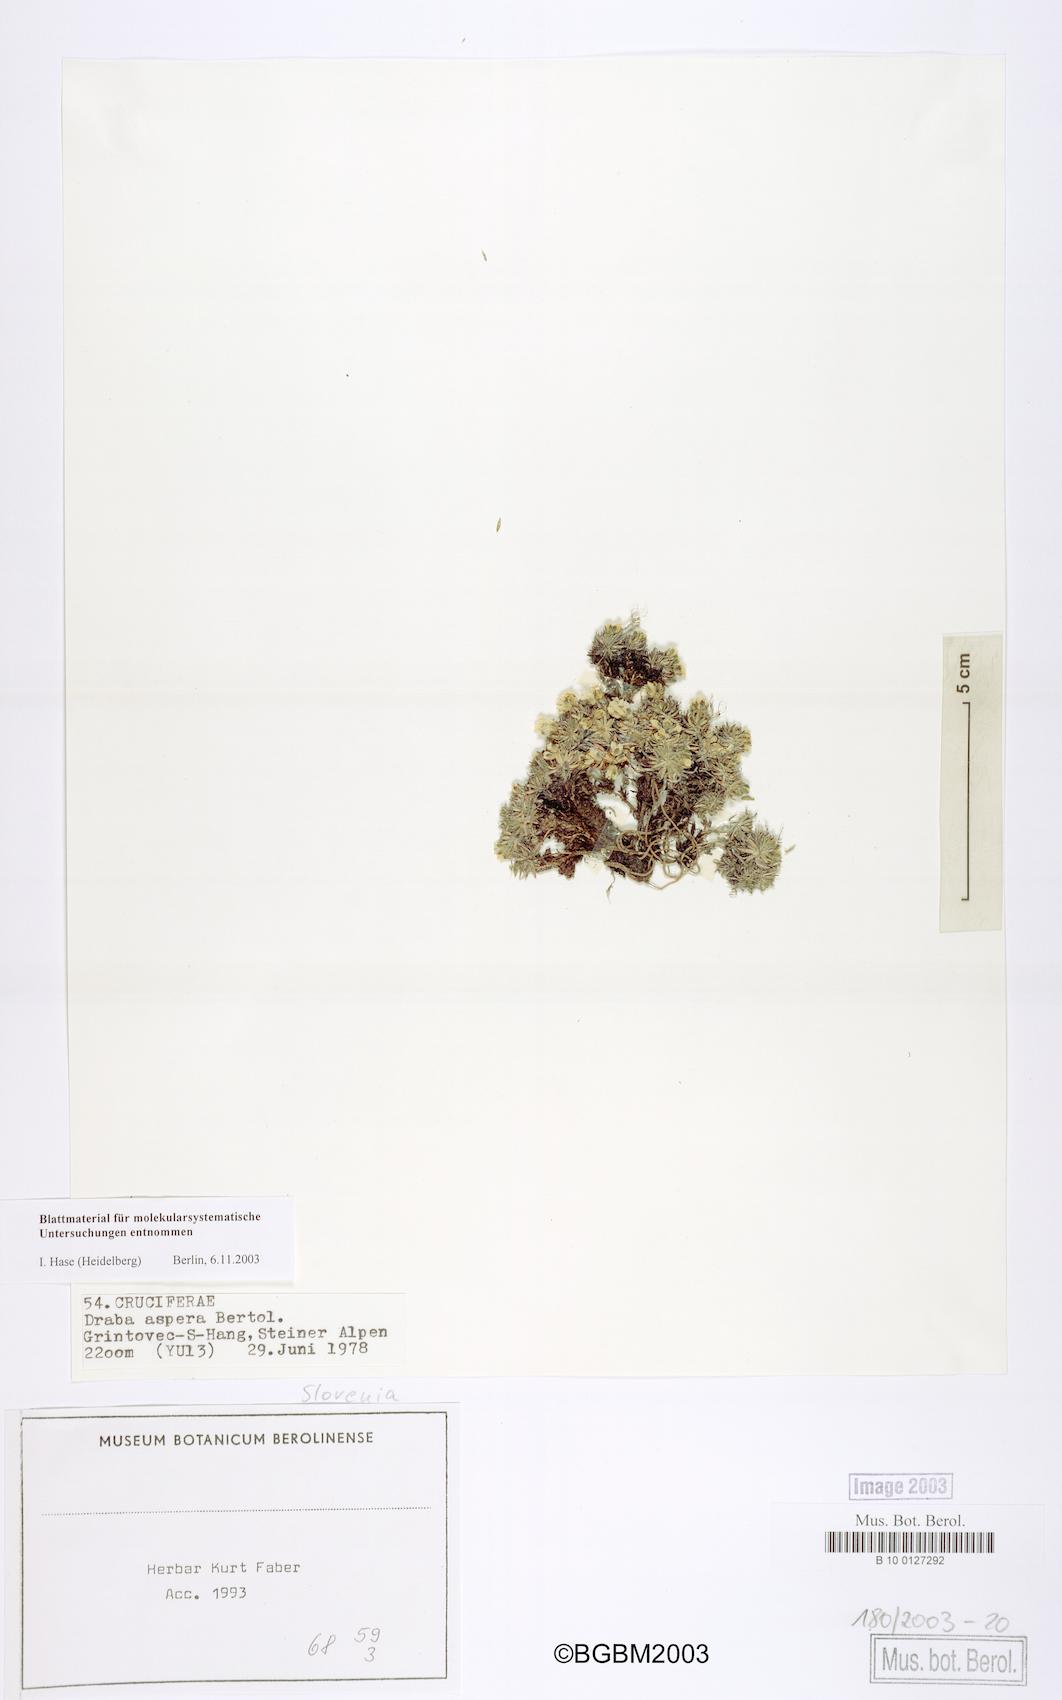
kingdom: Plantae
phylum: Tracheophyta
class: Magnoliopsida
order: Brassicales
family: Brassicaceae
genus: Draba
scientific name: Draba aspera
